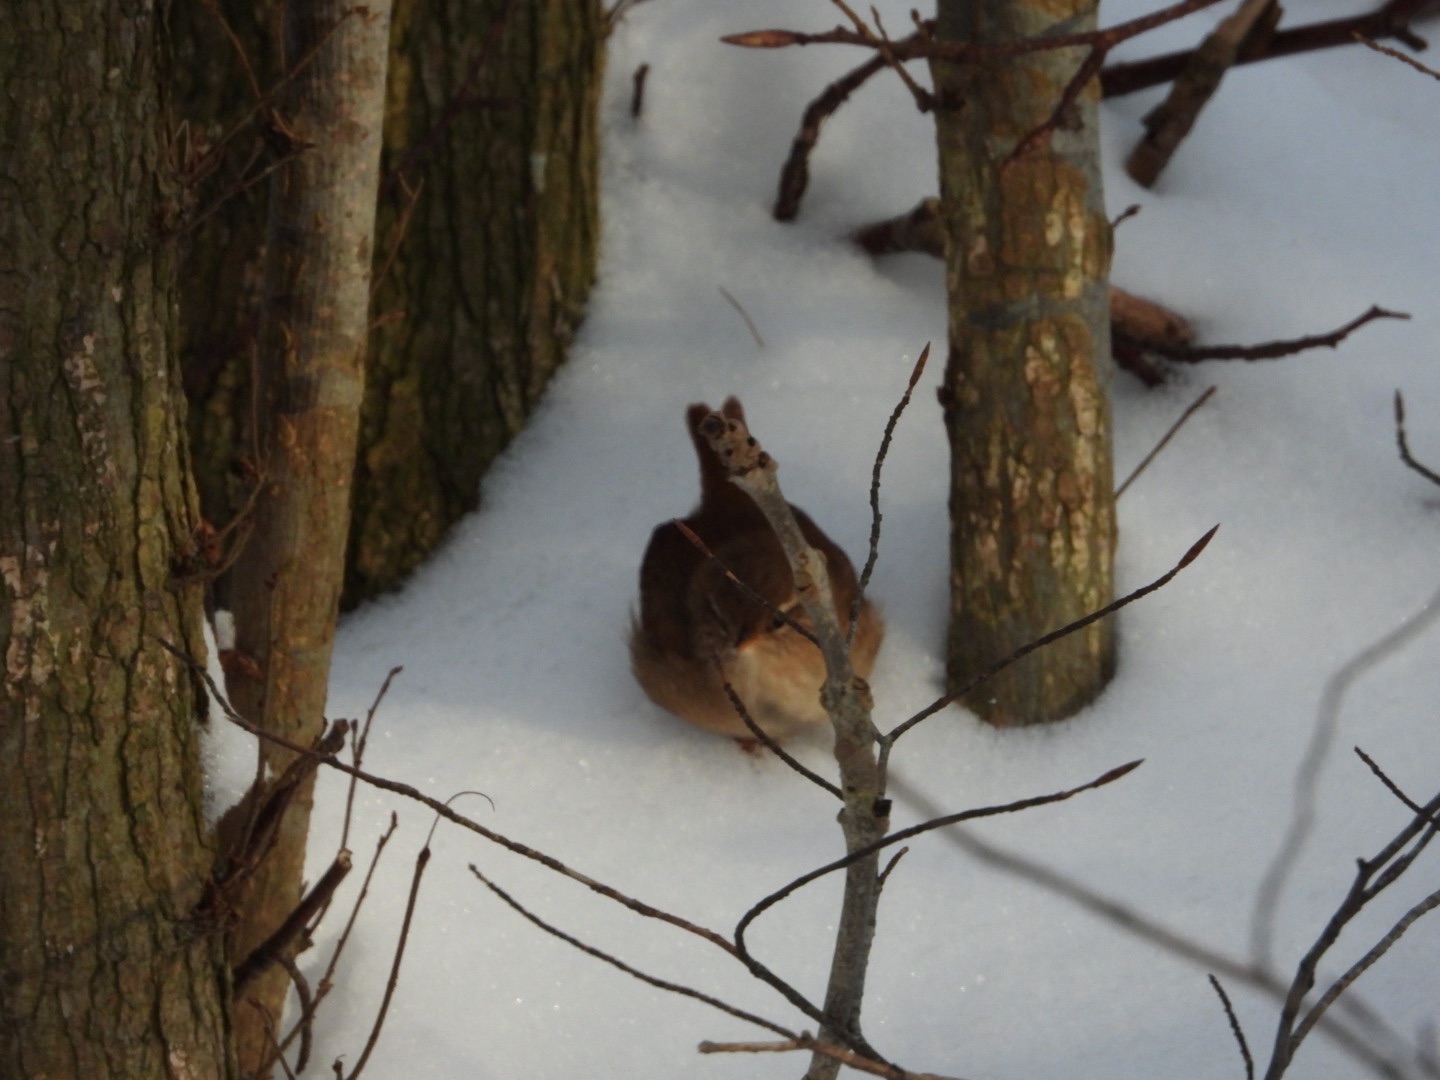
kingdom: Animalia
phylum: Chordata
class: Aves
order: Passeriformes
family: Troglodytidae
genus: Troglodytes
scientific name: Troglodytes troglodytes
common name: Gærdesmutte
